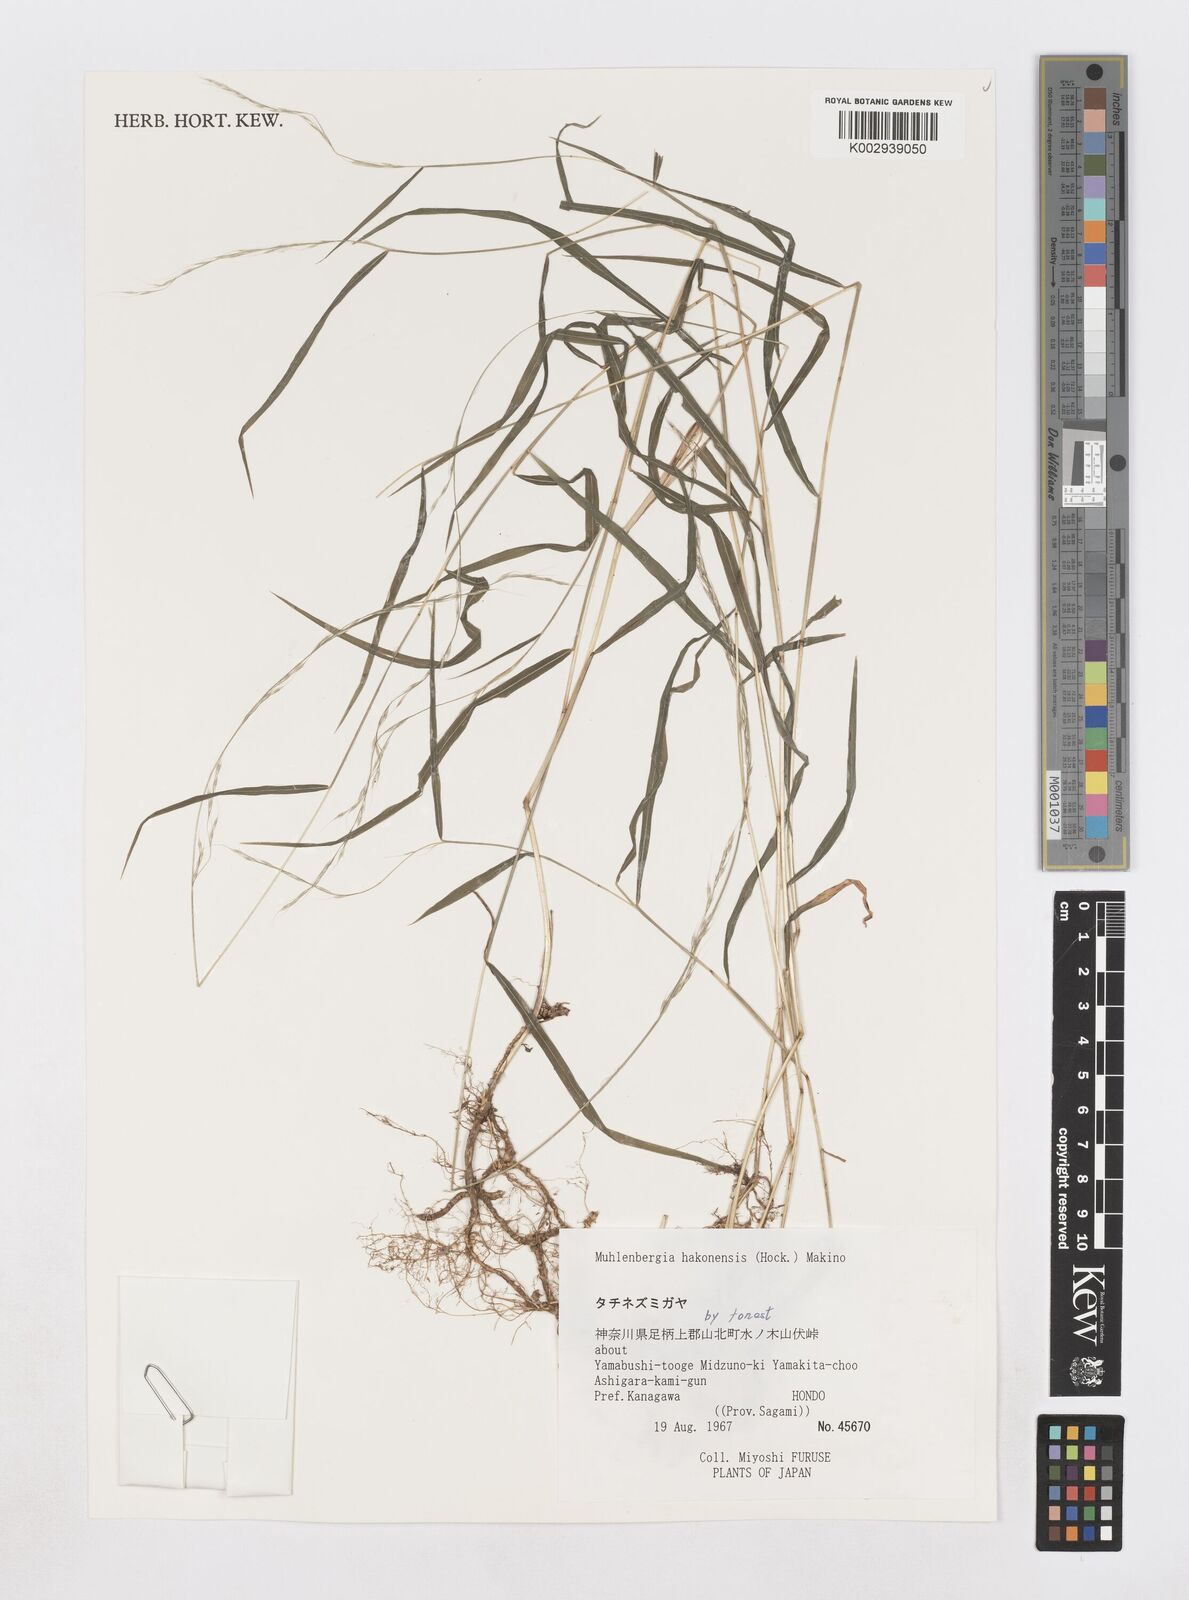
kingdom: Plantae
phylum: Tracheophyta
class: Liliopsida
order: Poales
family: Poaceae
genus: Muhlenbergia
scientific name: Muhlenbergia hakonensis
